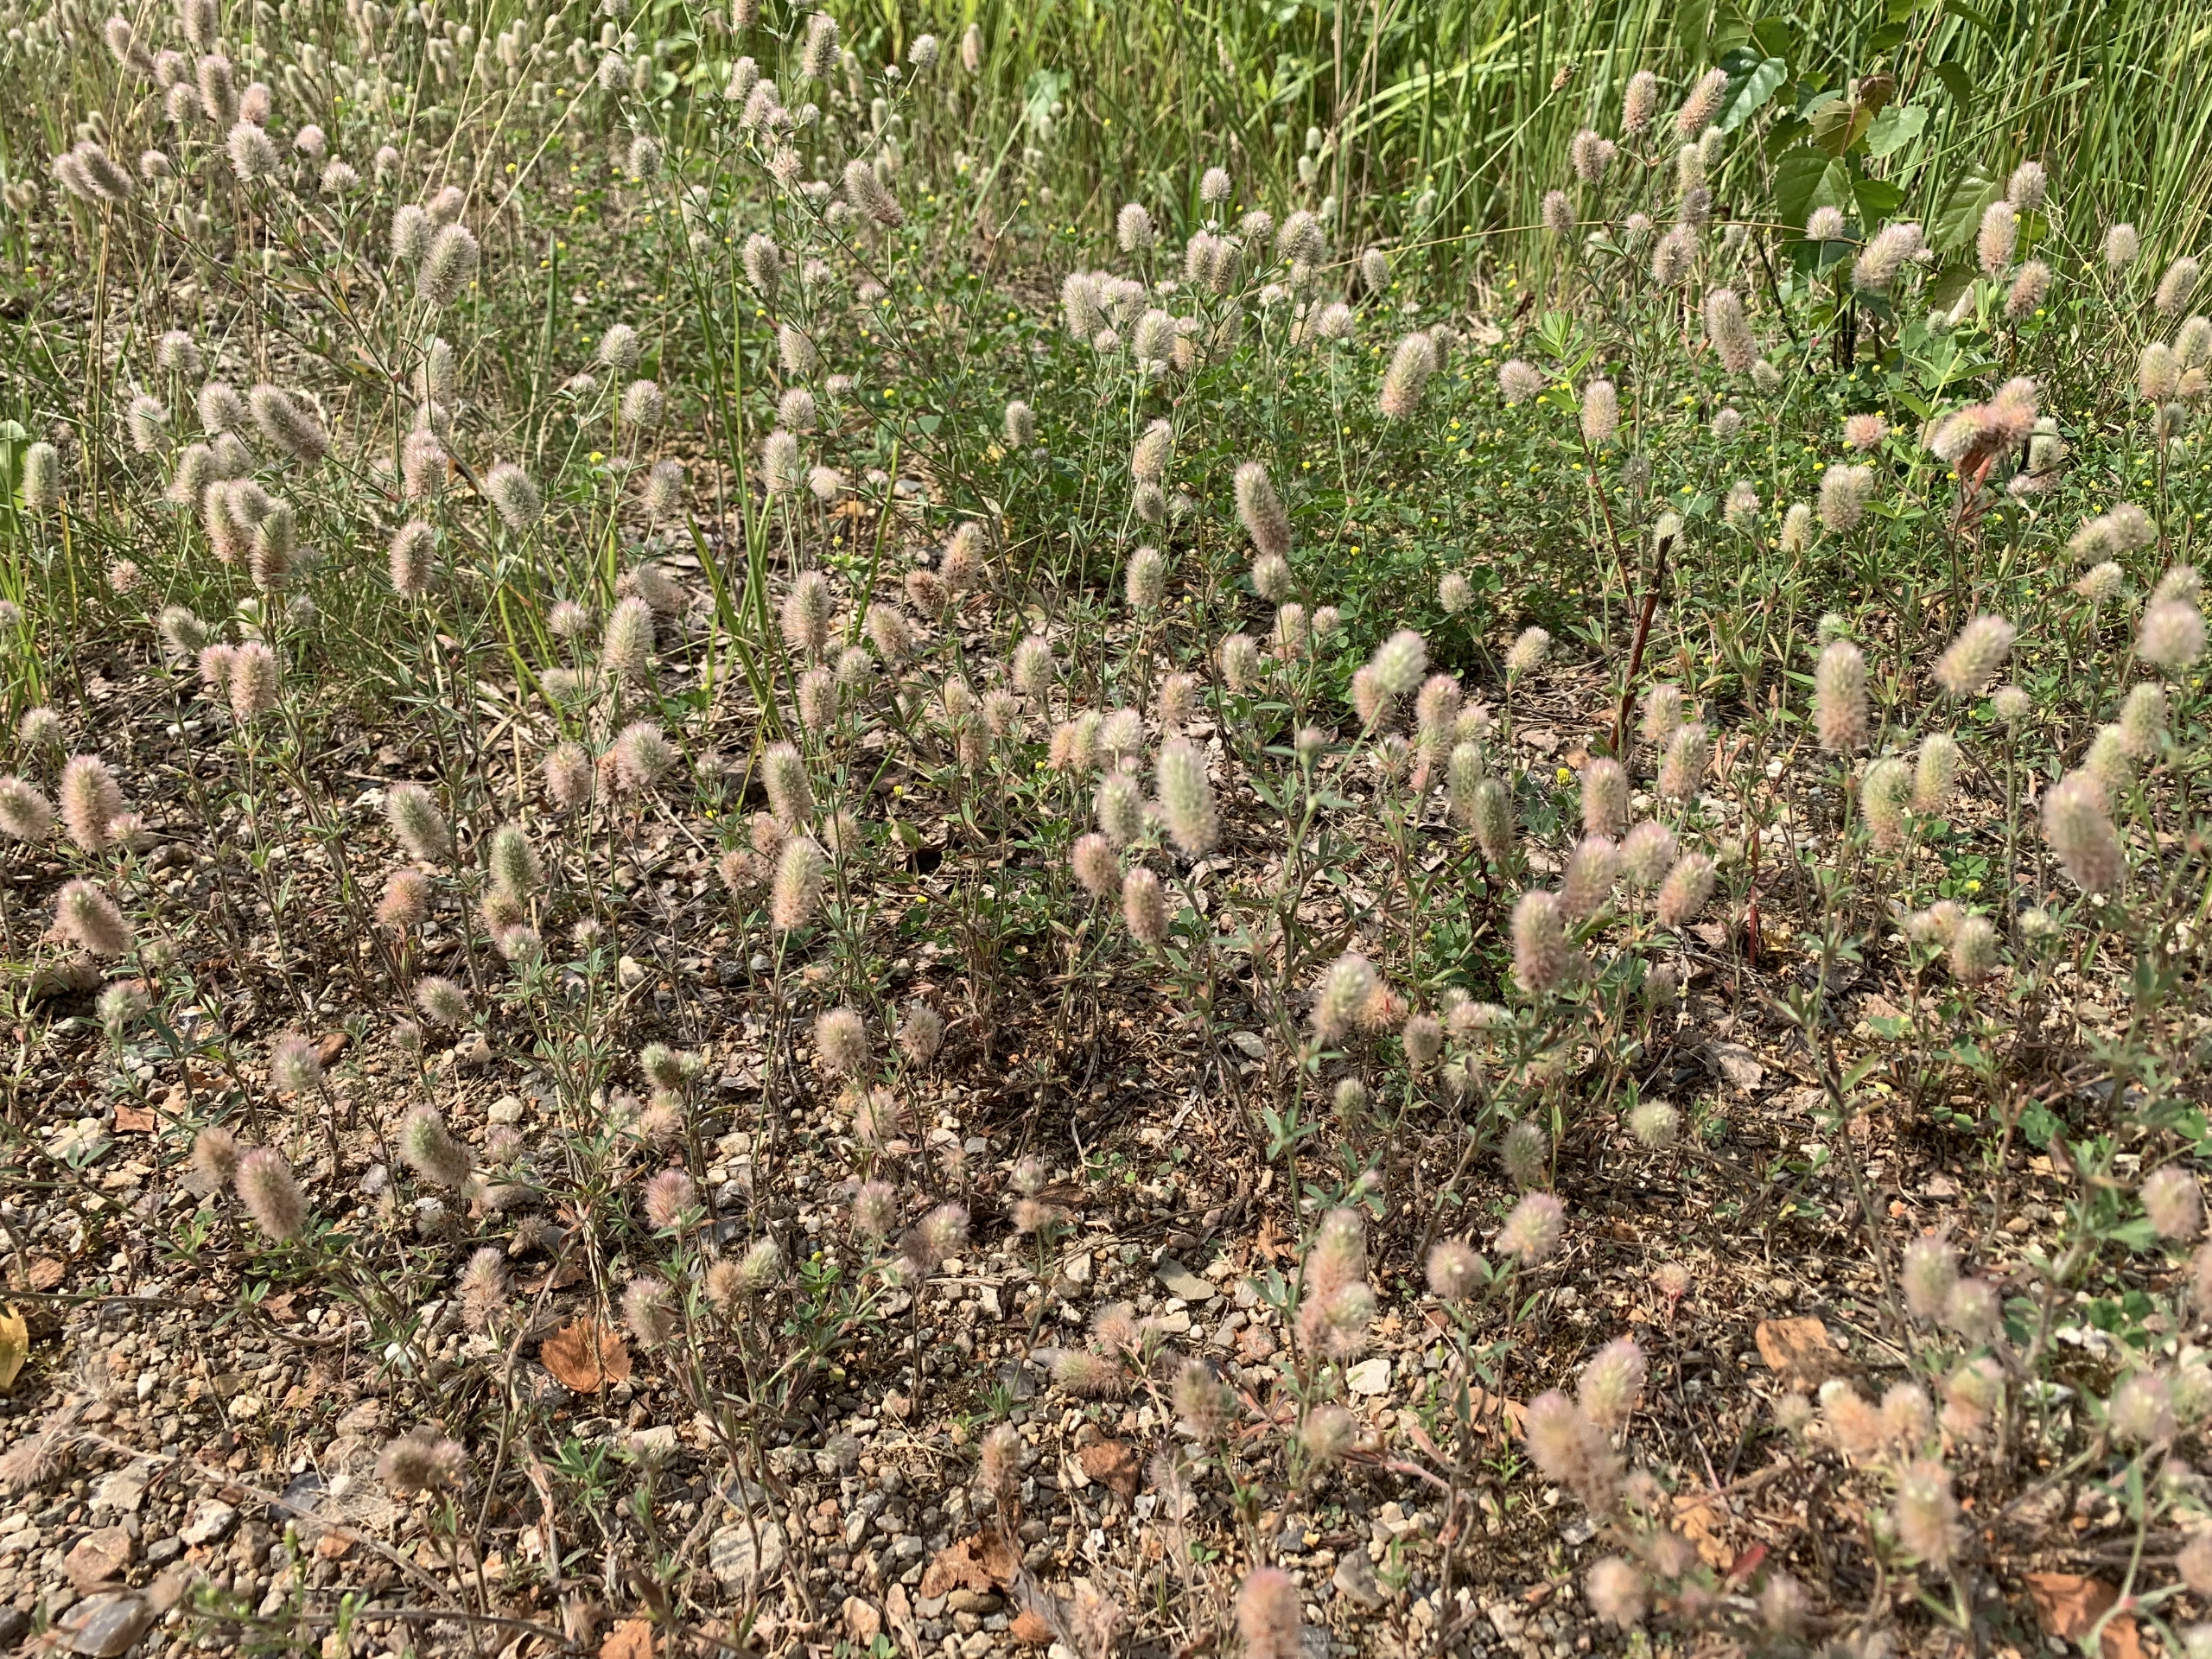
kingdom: Plantae
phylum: Tracheophyta
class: Magnoliopsida
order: Fabales
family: Fabaceae
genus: Trifolium
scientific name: Trifolium arvense
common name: Hare-kløver
